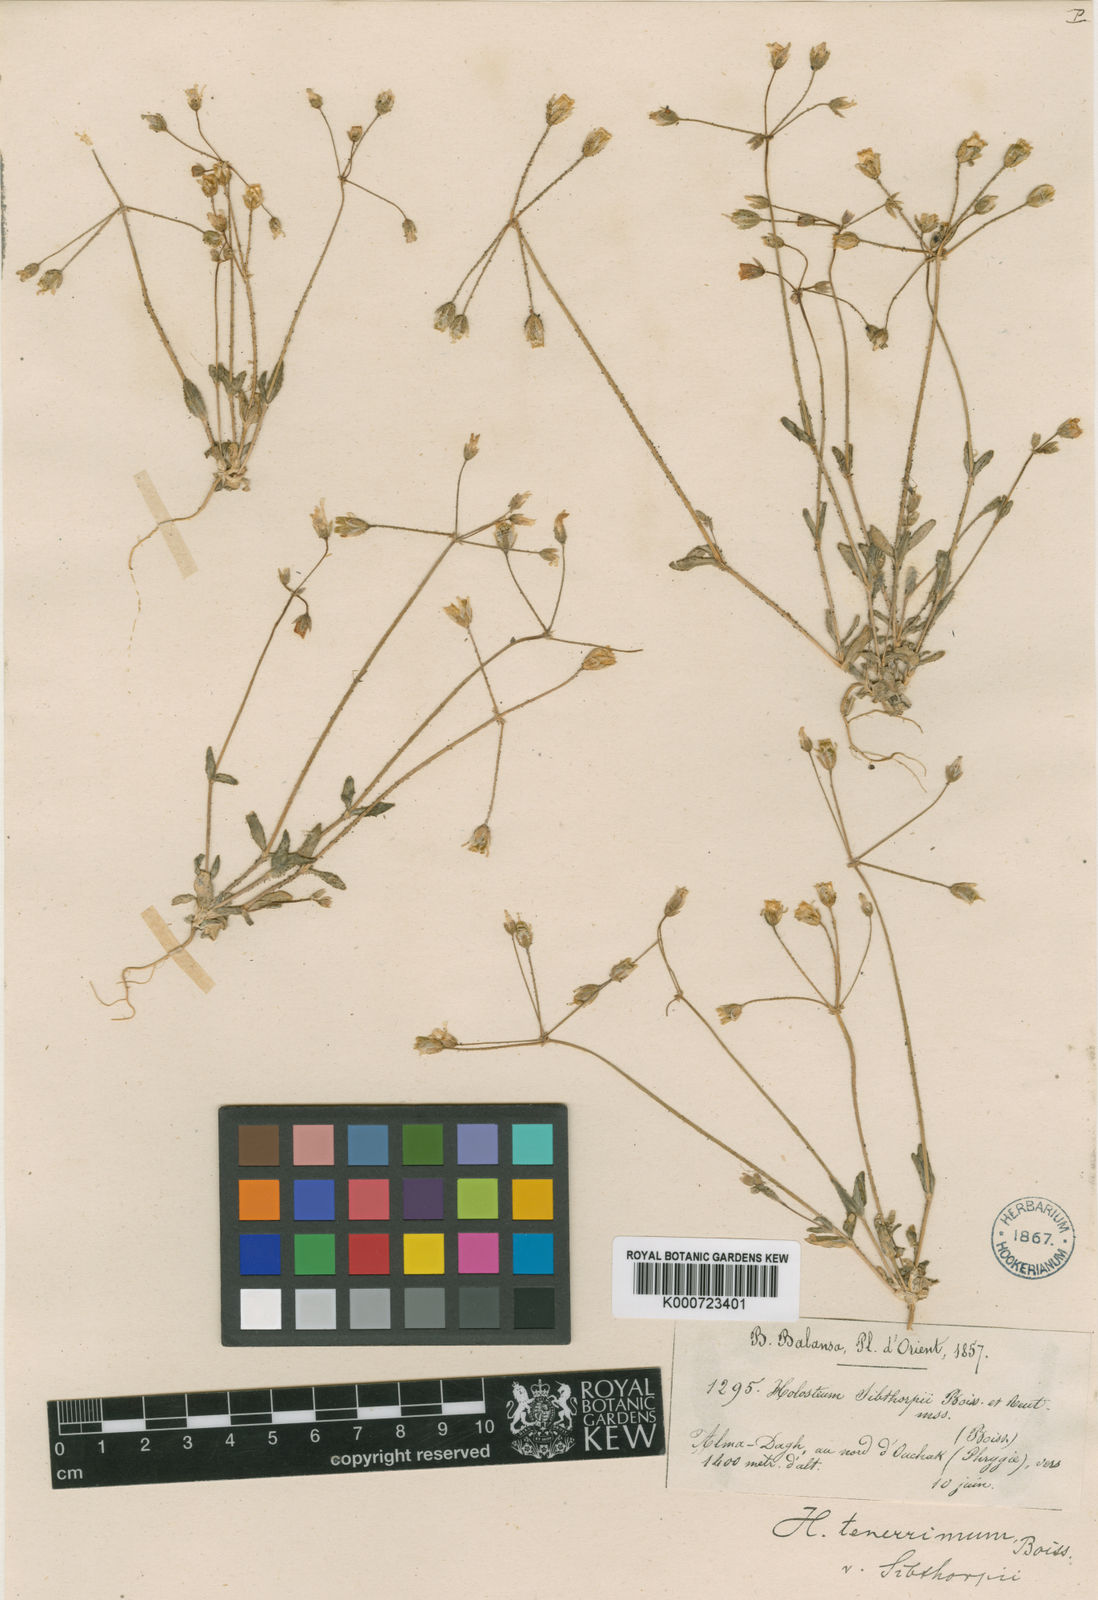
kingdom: Plantae
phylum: Tracheophyta
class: Magnoliopsida
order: Caryophyllales
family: Caryophyllaceae
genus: Holosteum
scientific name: Holosteum umbellatum
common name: Jagged chickweed
